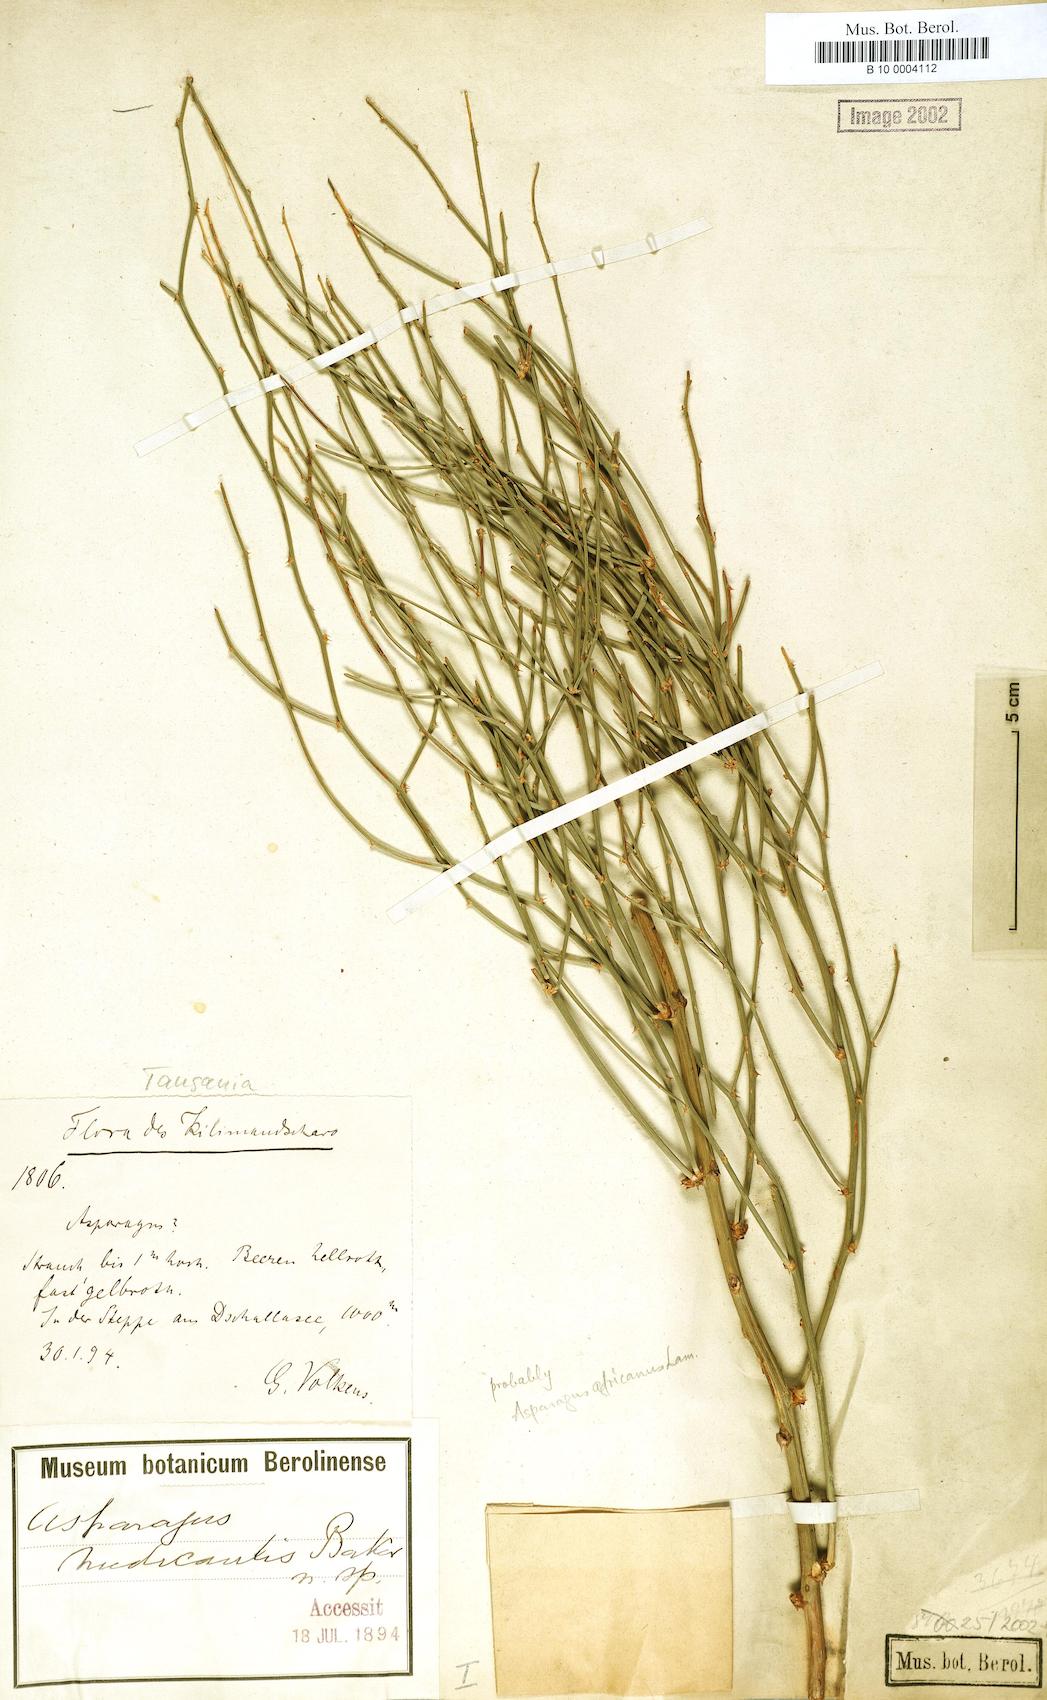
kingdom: Plantae
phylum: Tracheophyta
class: Liliopsida
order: Liliales
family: Liliaceae
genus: Asparagus
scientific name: Asparagus
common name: Asparagus
